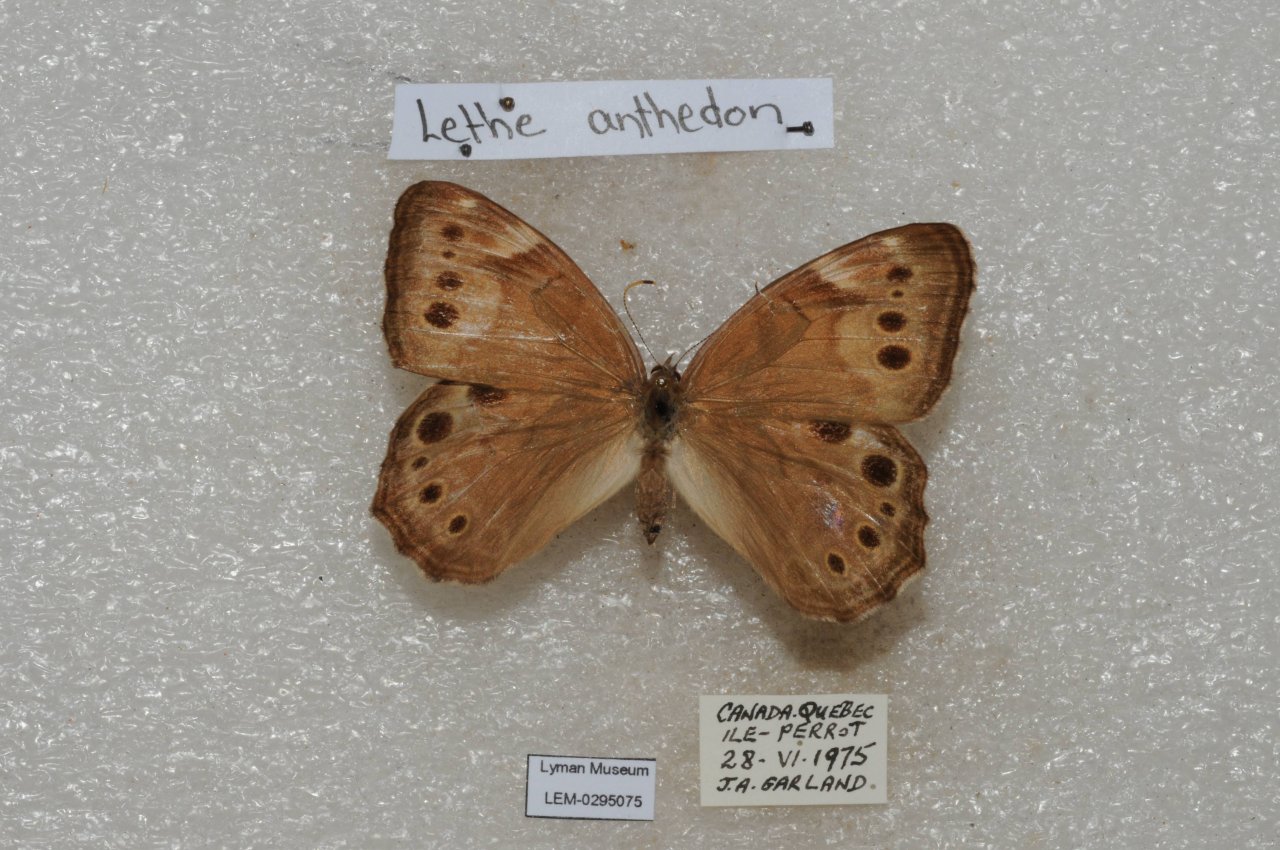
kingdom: Animalia
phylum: Arthropoda
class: Insecta
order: Lepidoptera
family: Nymphalidae
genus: Lethe
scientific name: Lethe anthedon
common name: Northern Pearly-Eye
